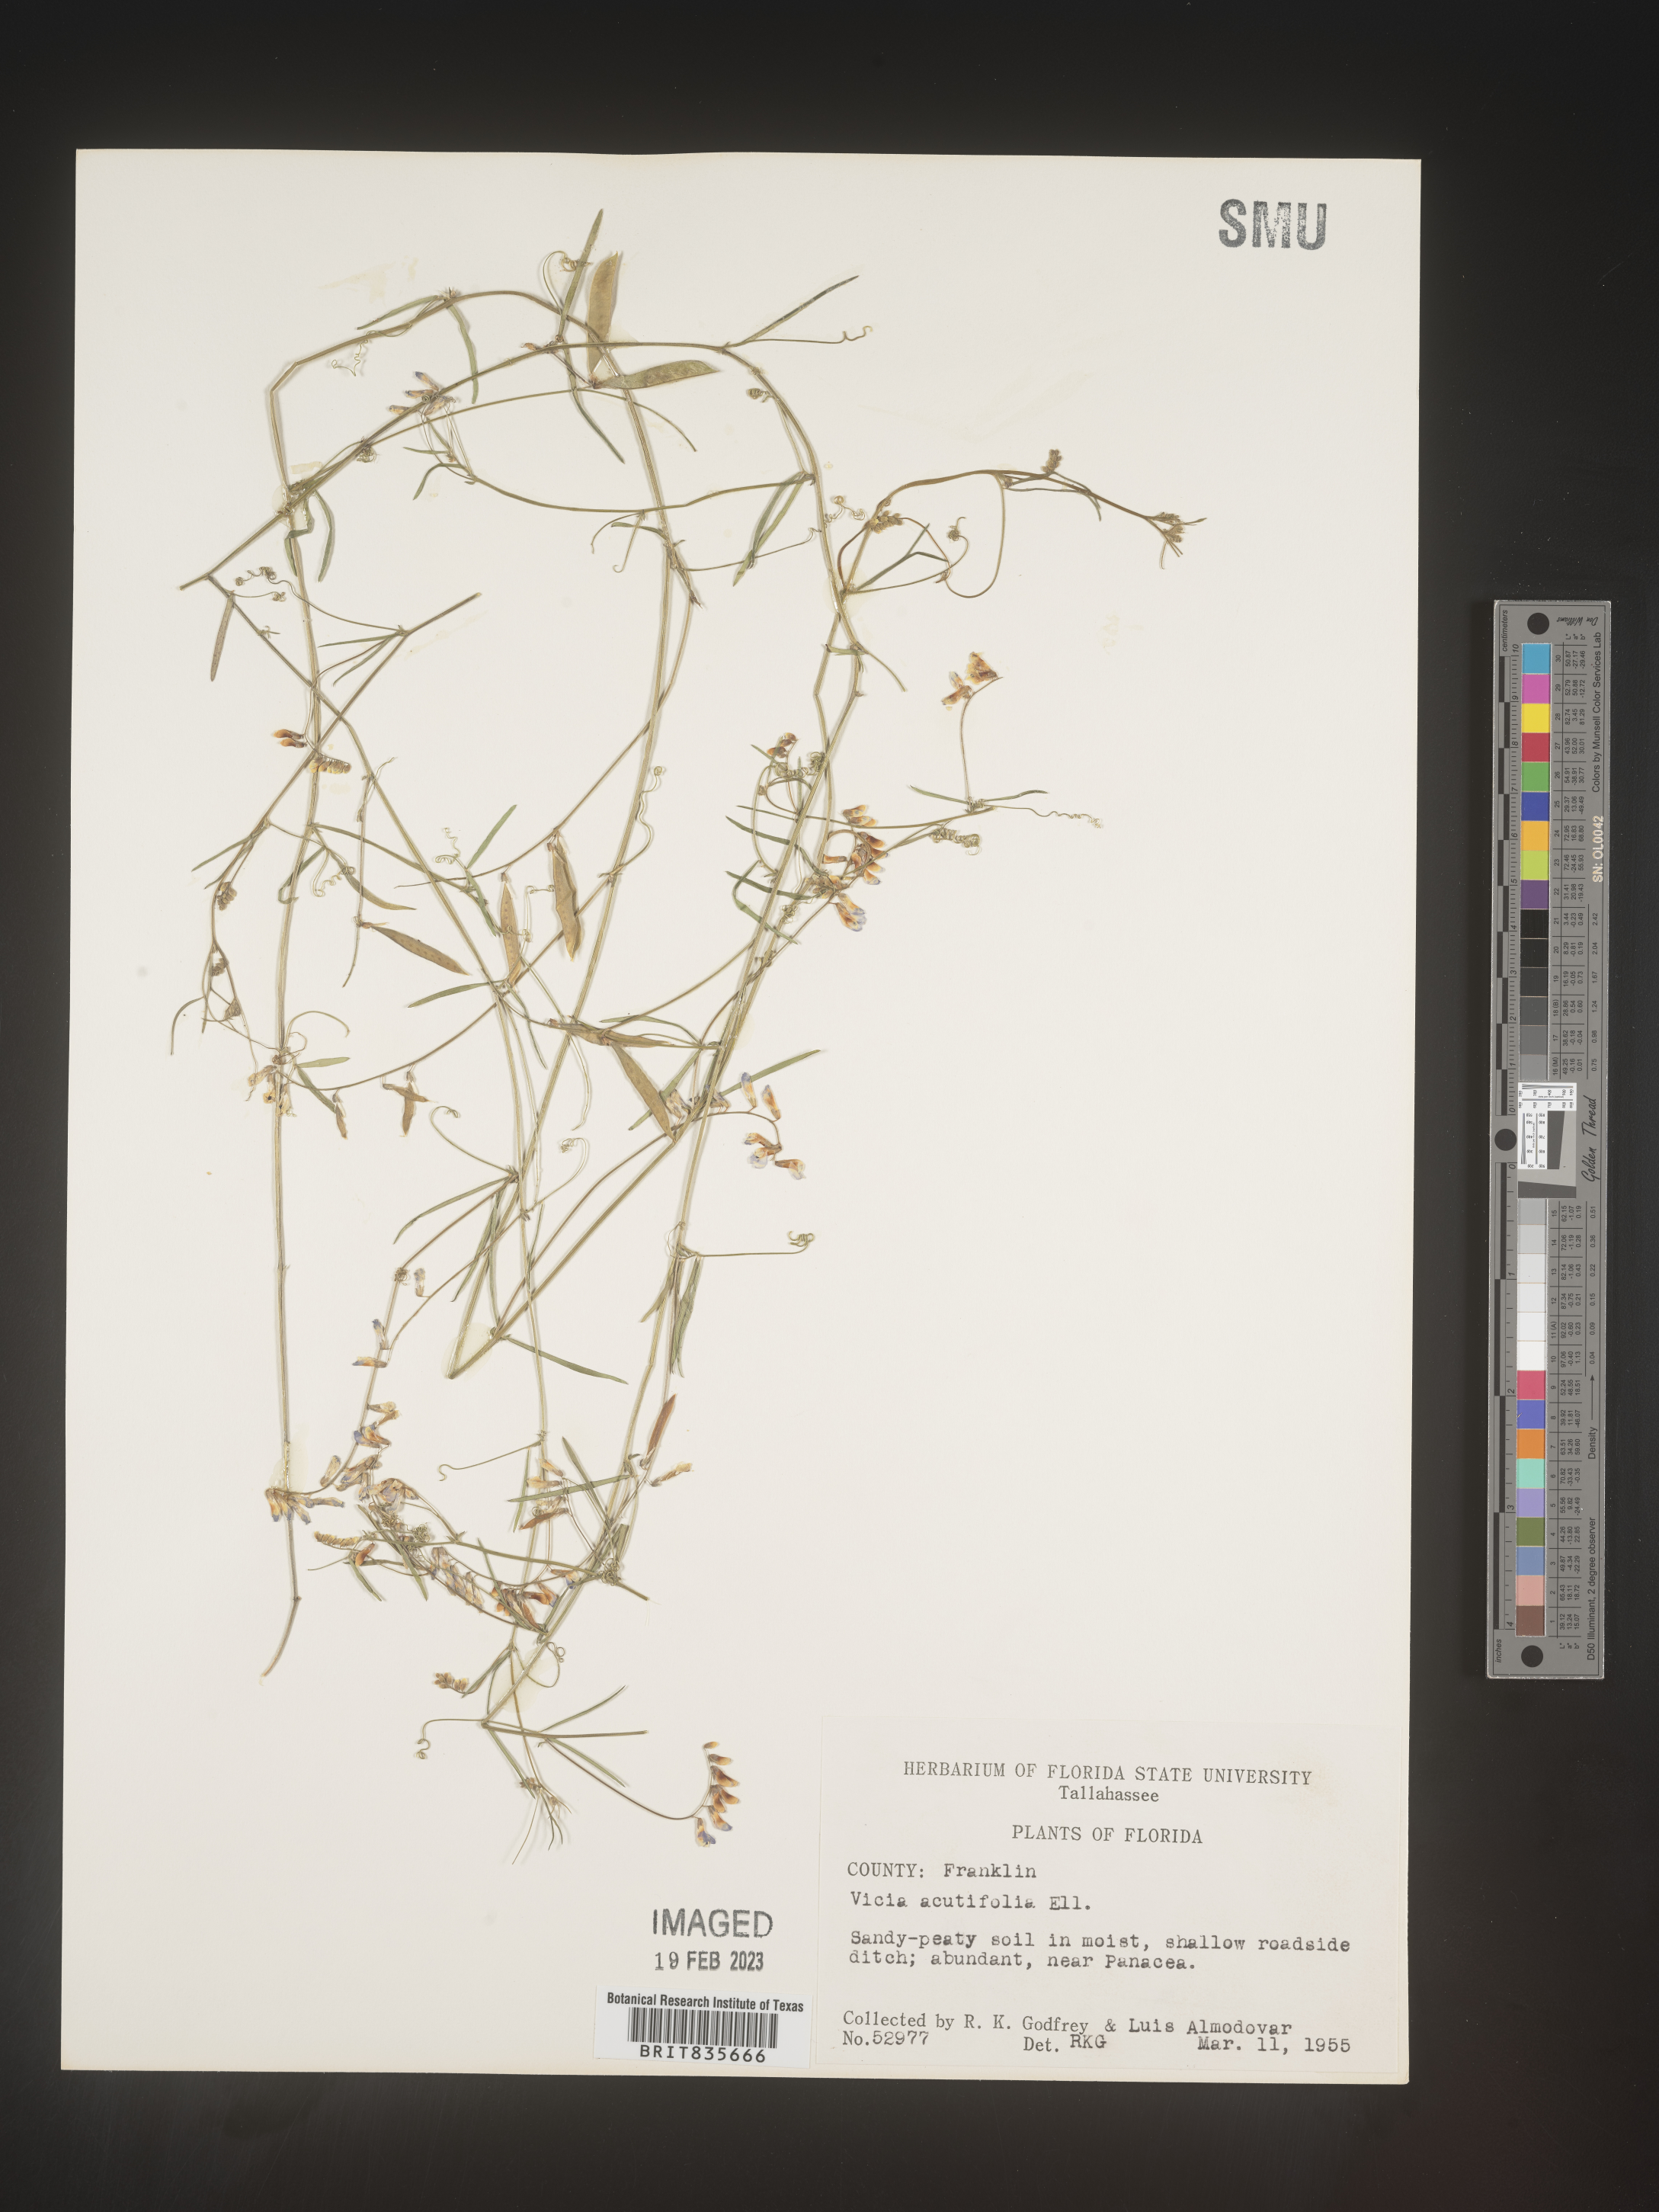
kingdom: Plantae
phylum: Tracheophyta
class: Magnoliopsida
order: Fabales
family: Fabaceae
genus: Vicia
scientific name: Vicia acutifolia
